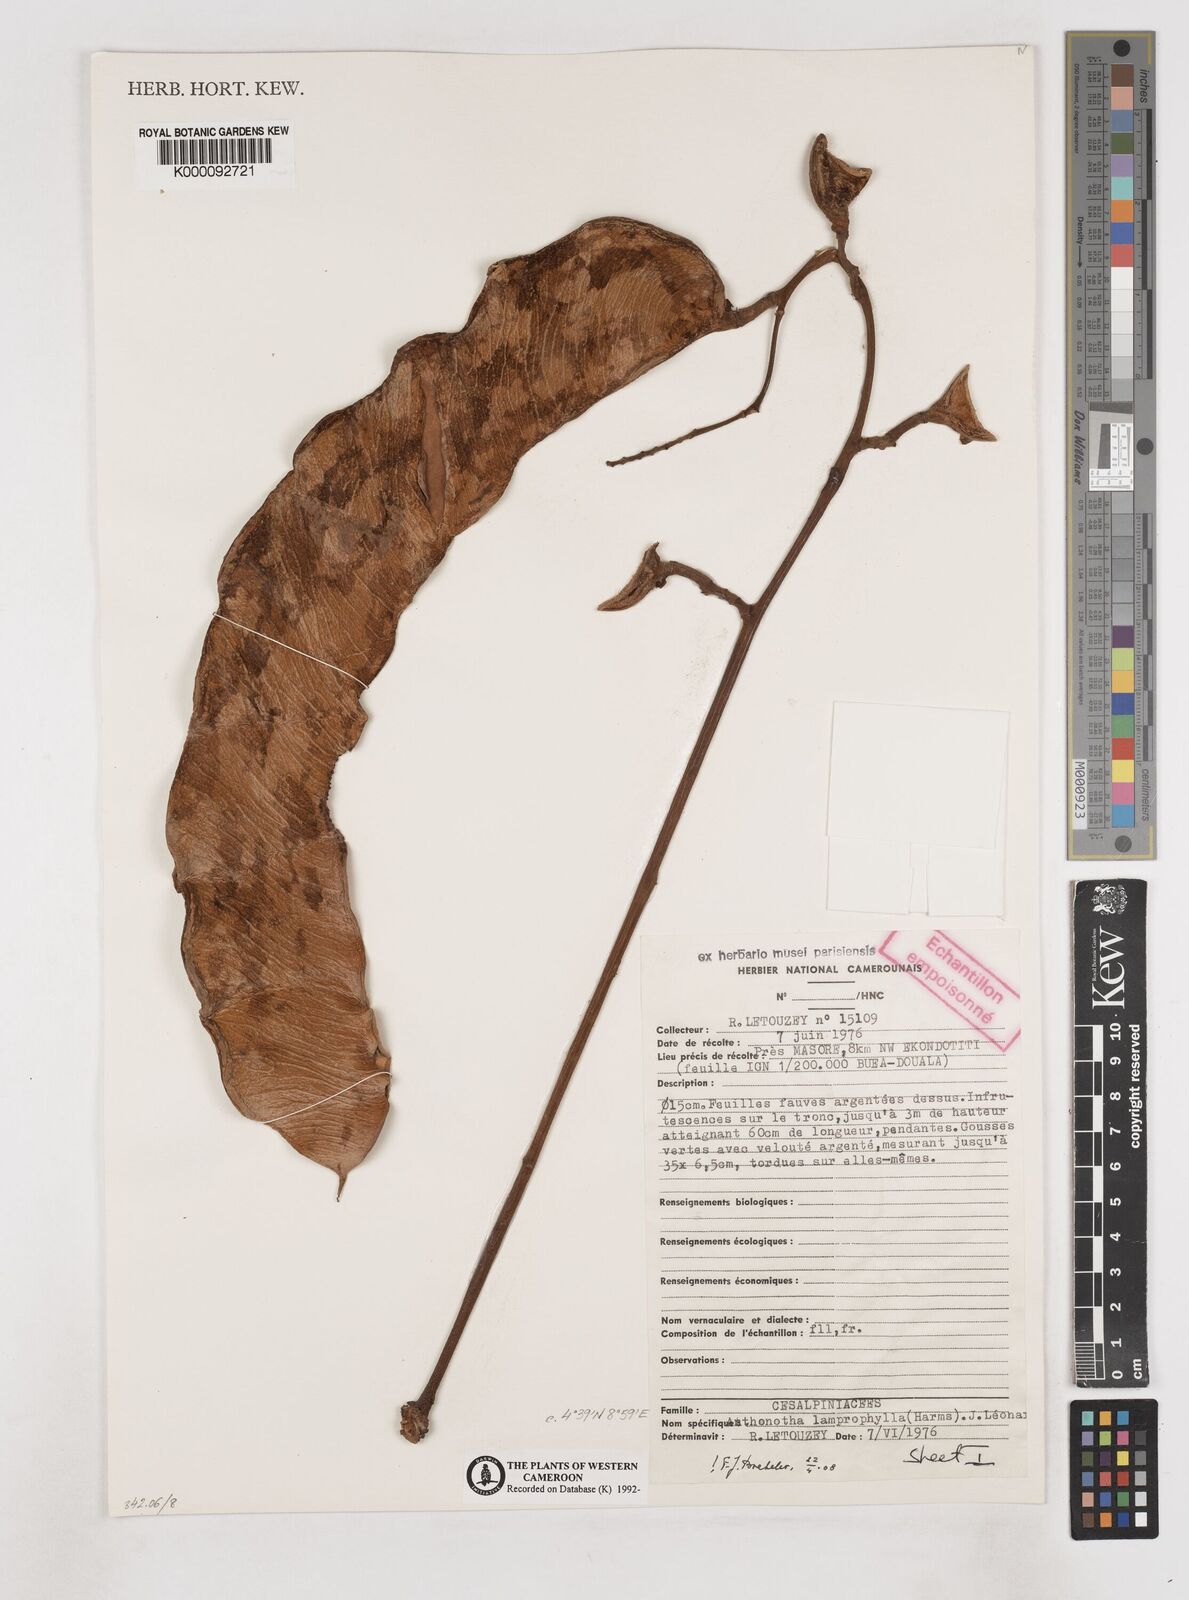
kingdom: Plantae
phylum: Tracheophyta
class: Magnoliopsida
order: Fabales
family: Fabaceae
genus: Anthonotha
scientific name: Anthonotha
